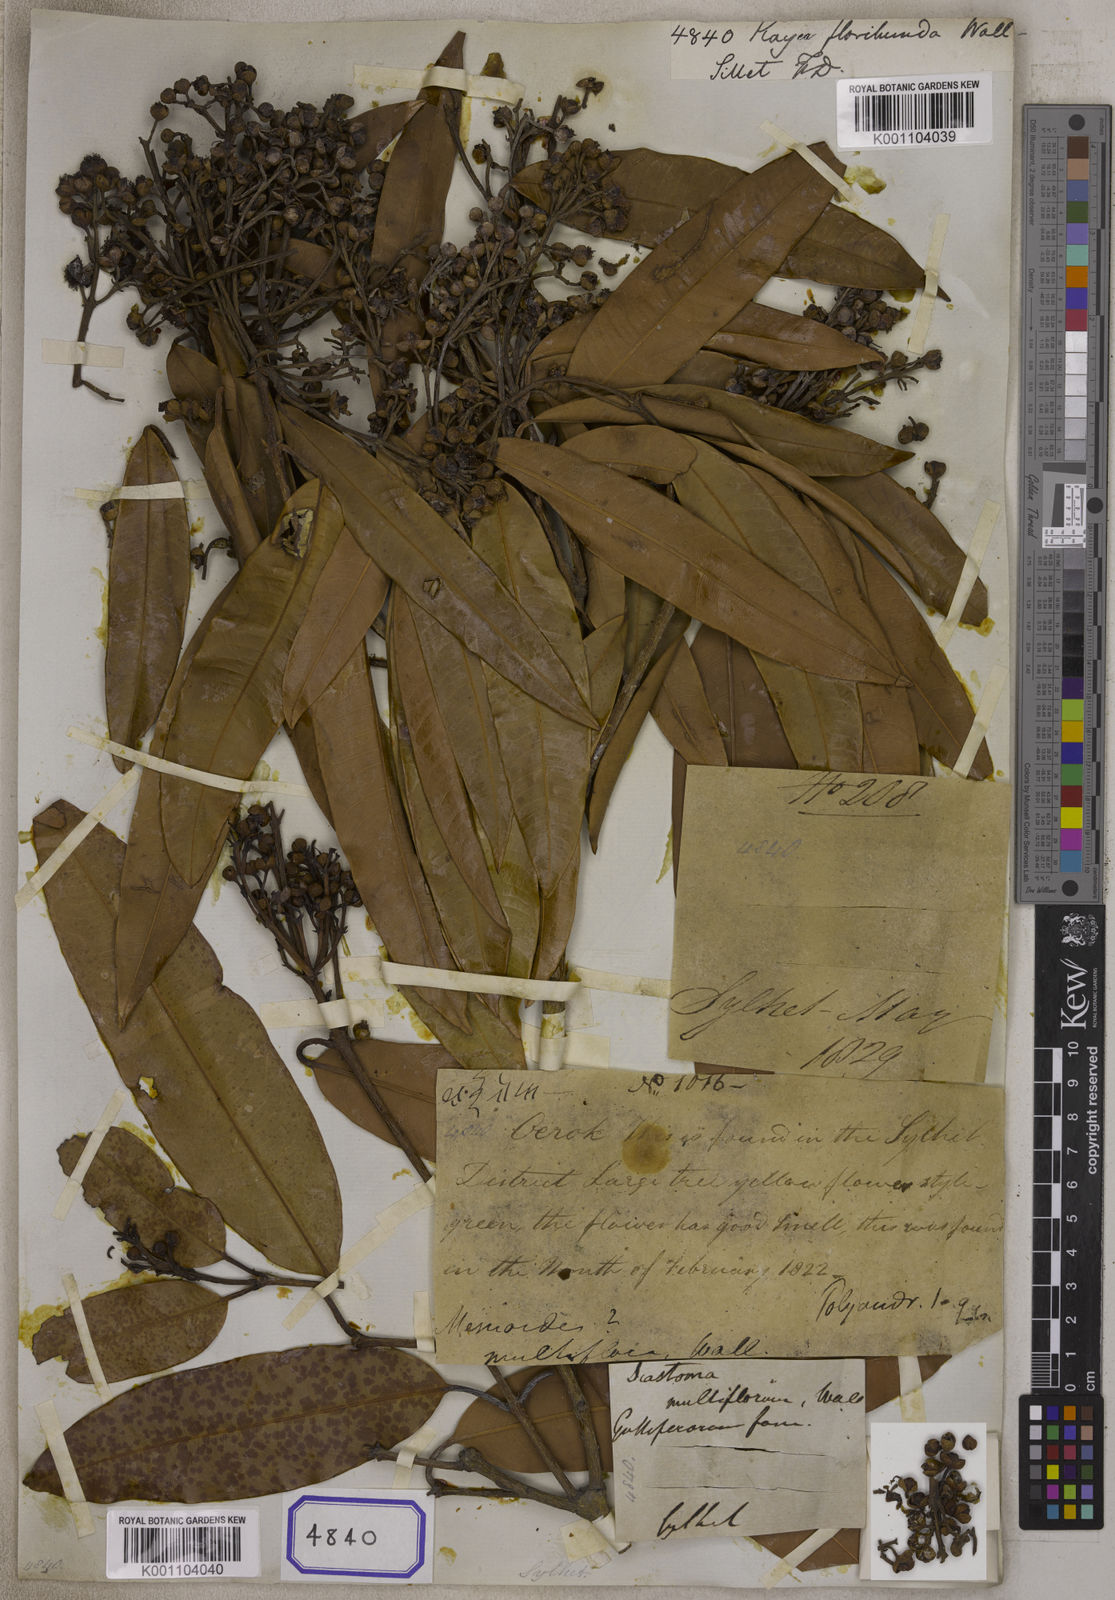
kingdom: Plantae
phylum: Tracheophyta
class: Magnoliopsida
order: Malpighiales
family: Calophyllaceae
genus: Kayea
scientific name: Kayea floribunda
